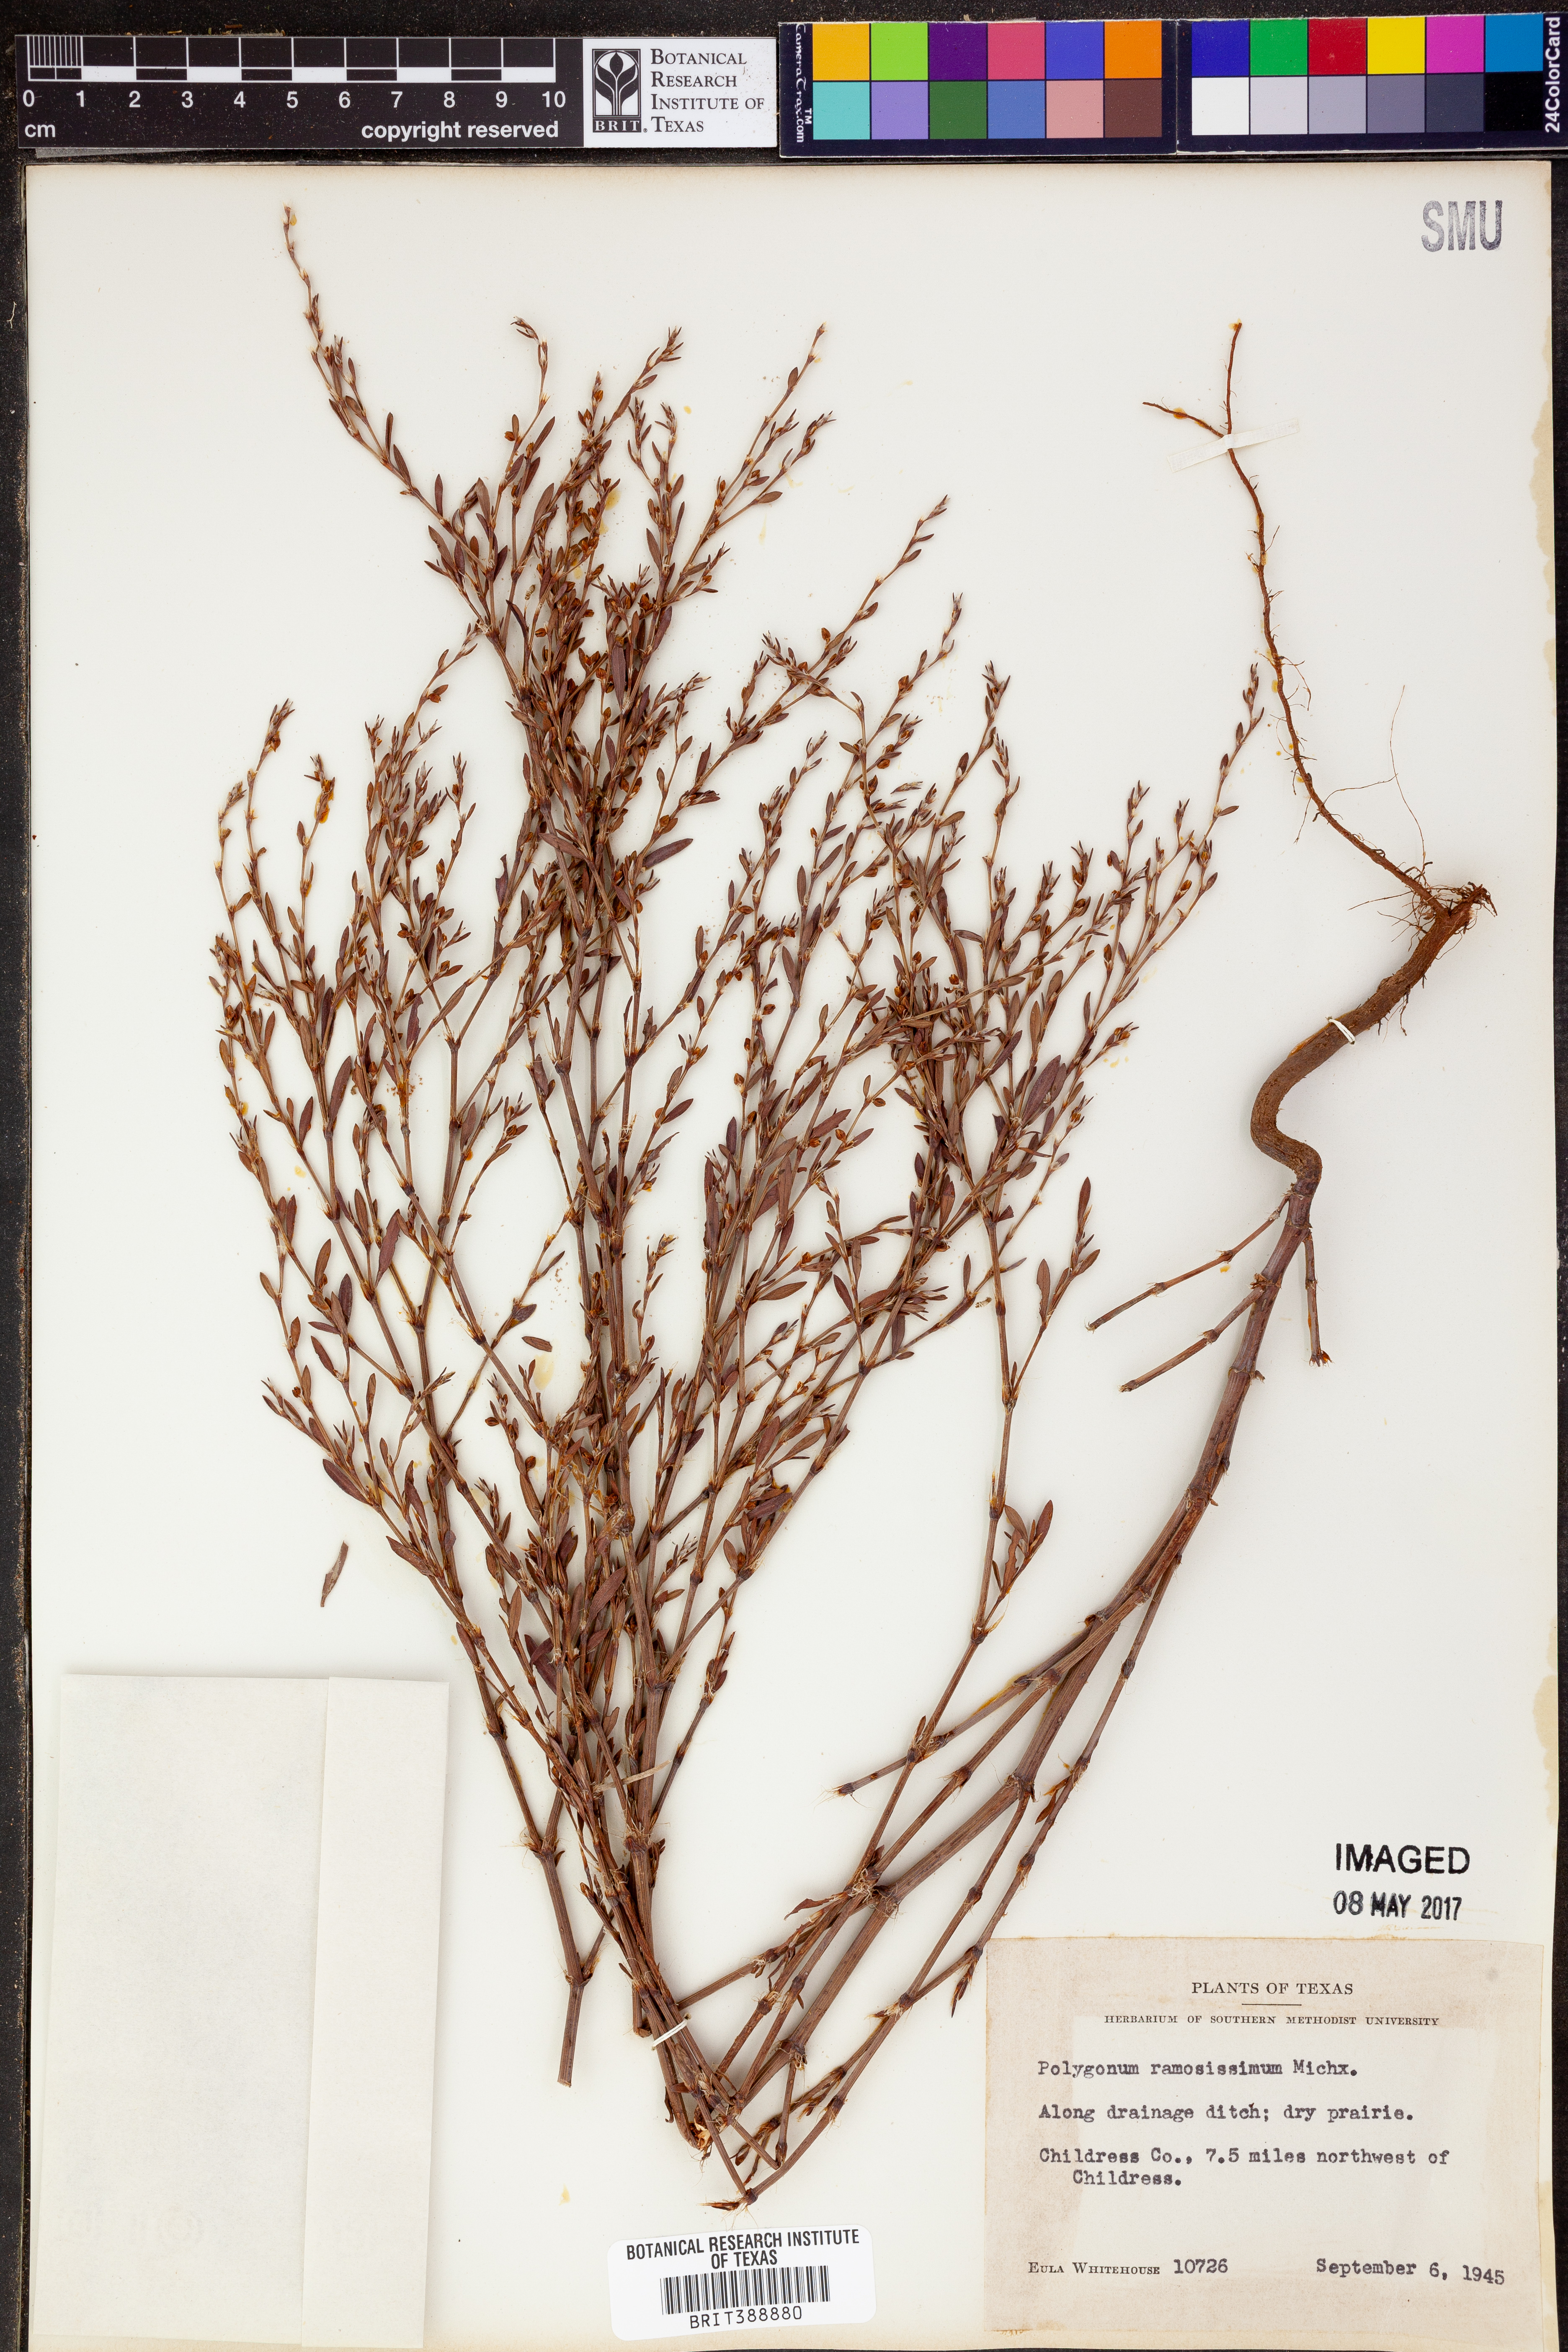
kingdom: Plantae
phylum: Tracheophyta
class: Magnoliopsida
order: Caryophyllales
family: Polygonaceae
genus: Polygonum
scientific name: Polygonum ramosissimum
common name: Bushy knotweed
